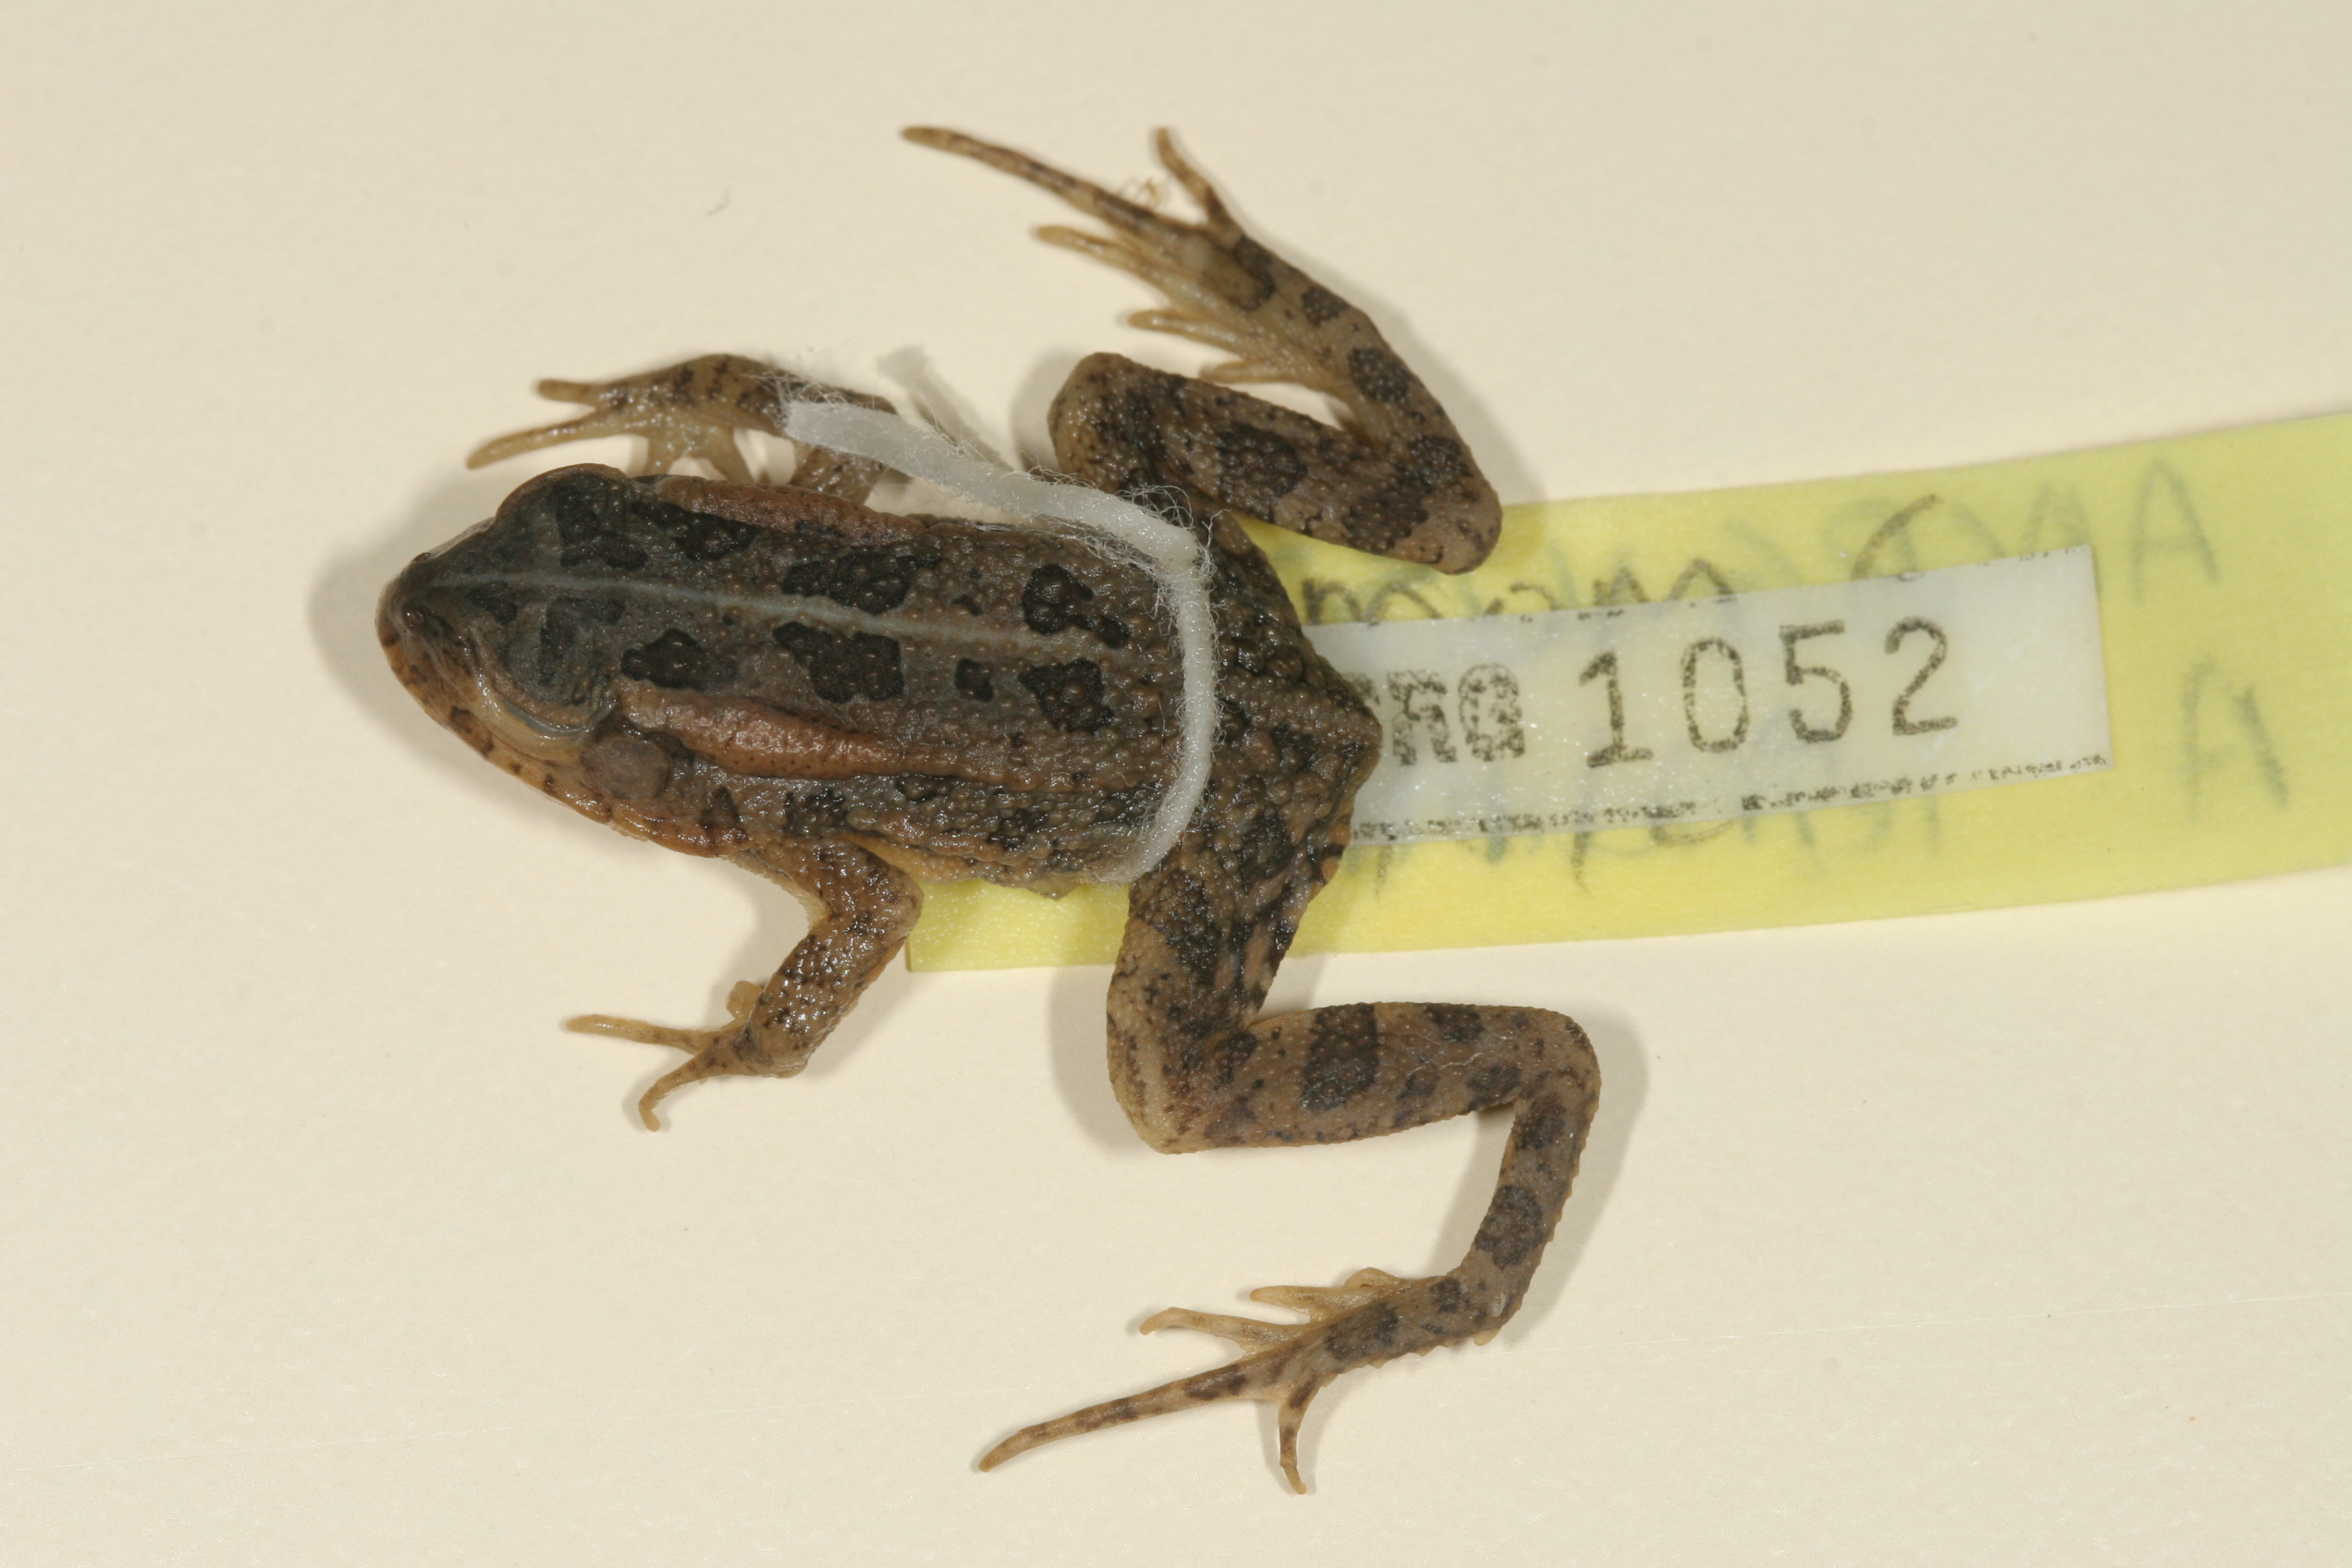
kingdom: Animalia
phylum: Chordata
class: Amphibia
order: Anura
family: Bufonidae
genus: Sclerophrys
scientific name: Sclerophrys lemairii
